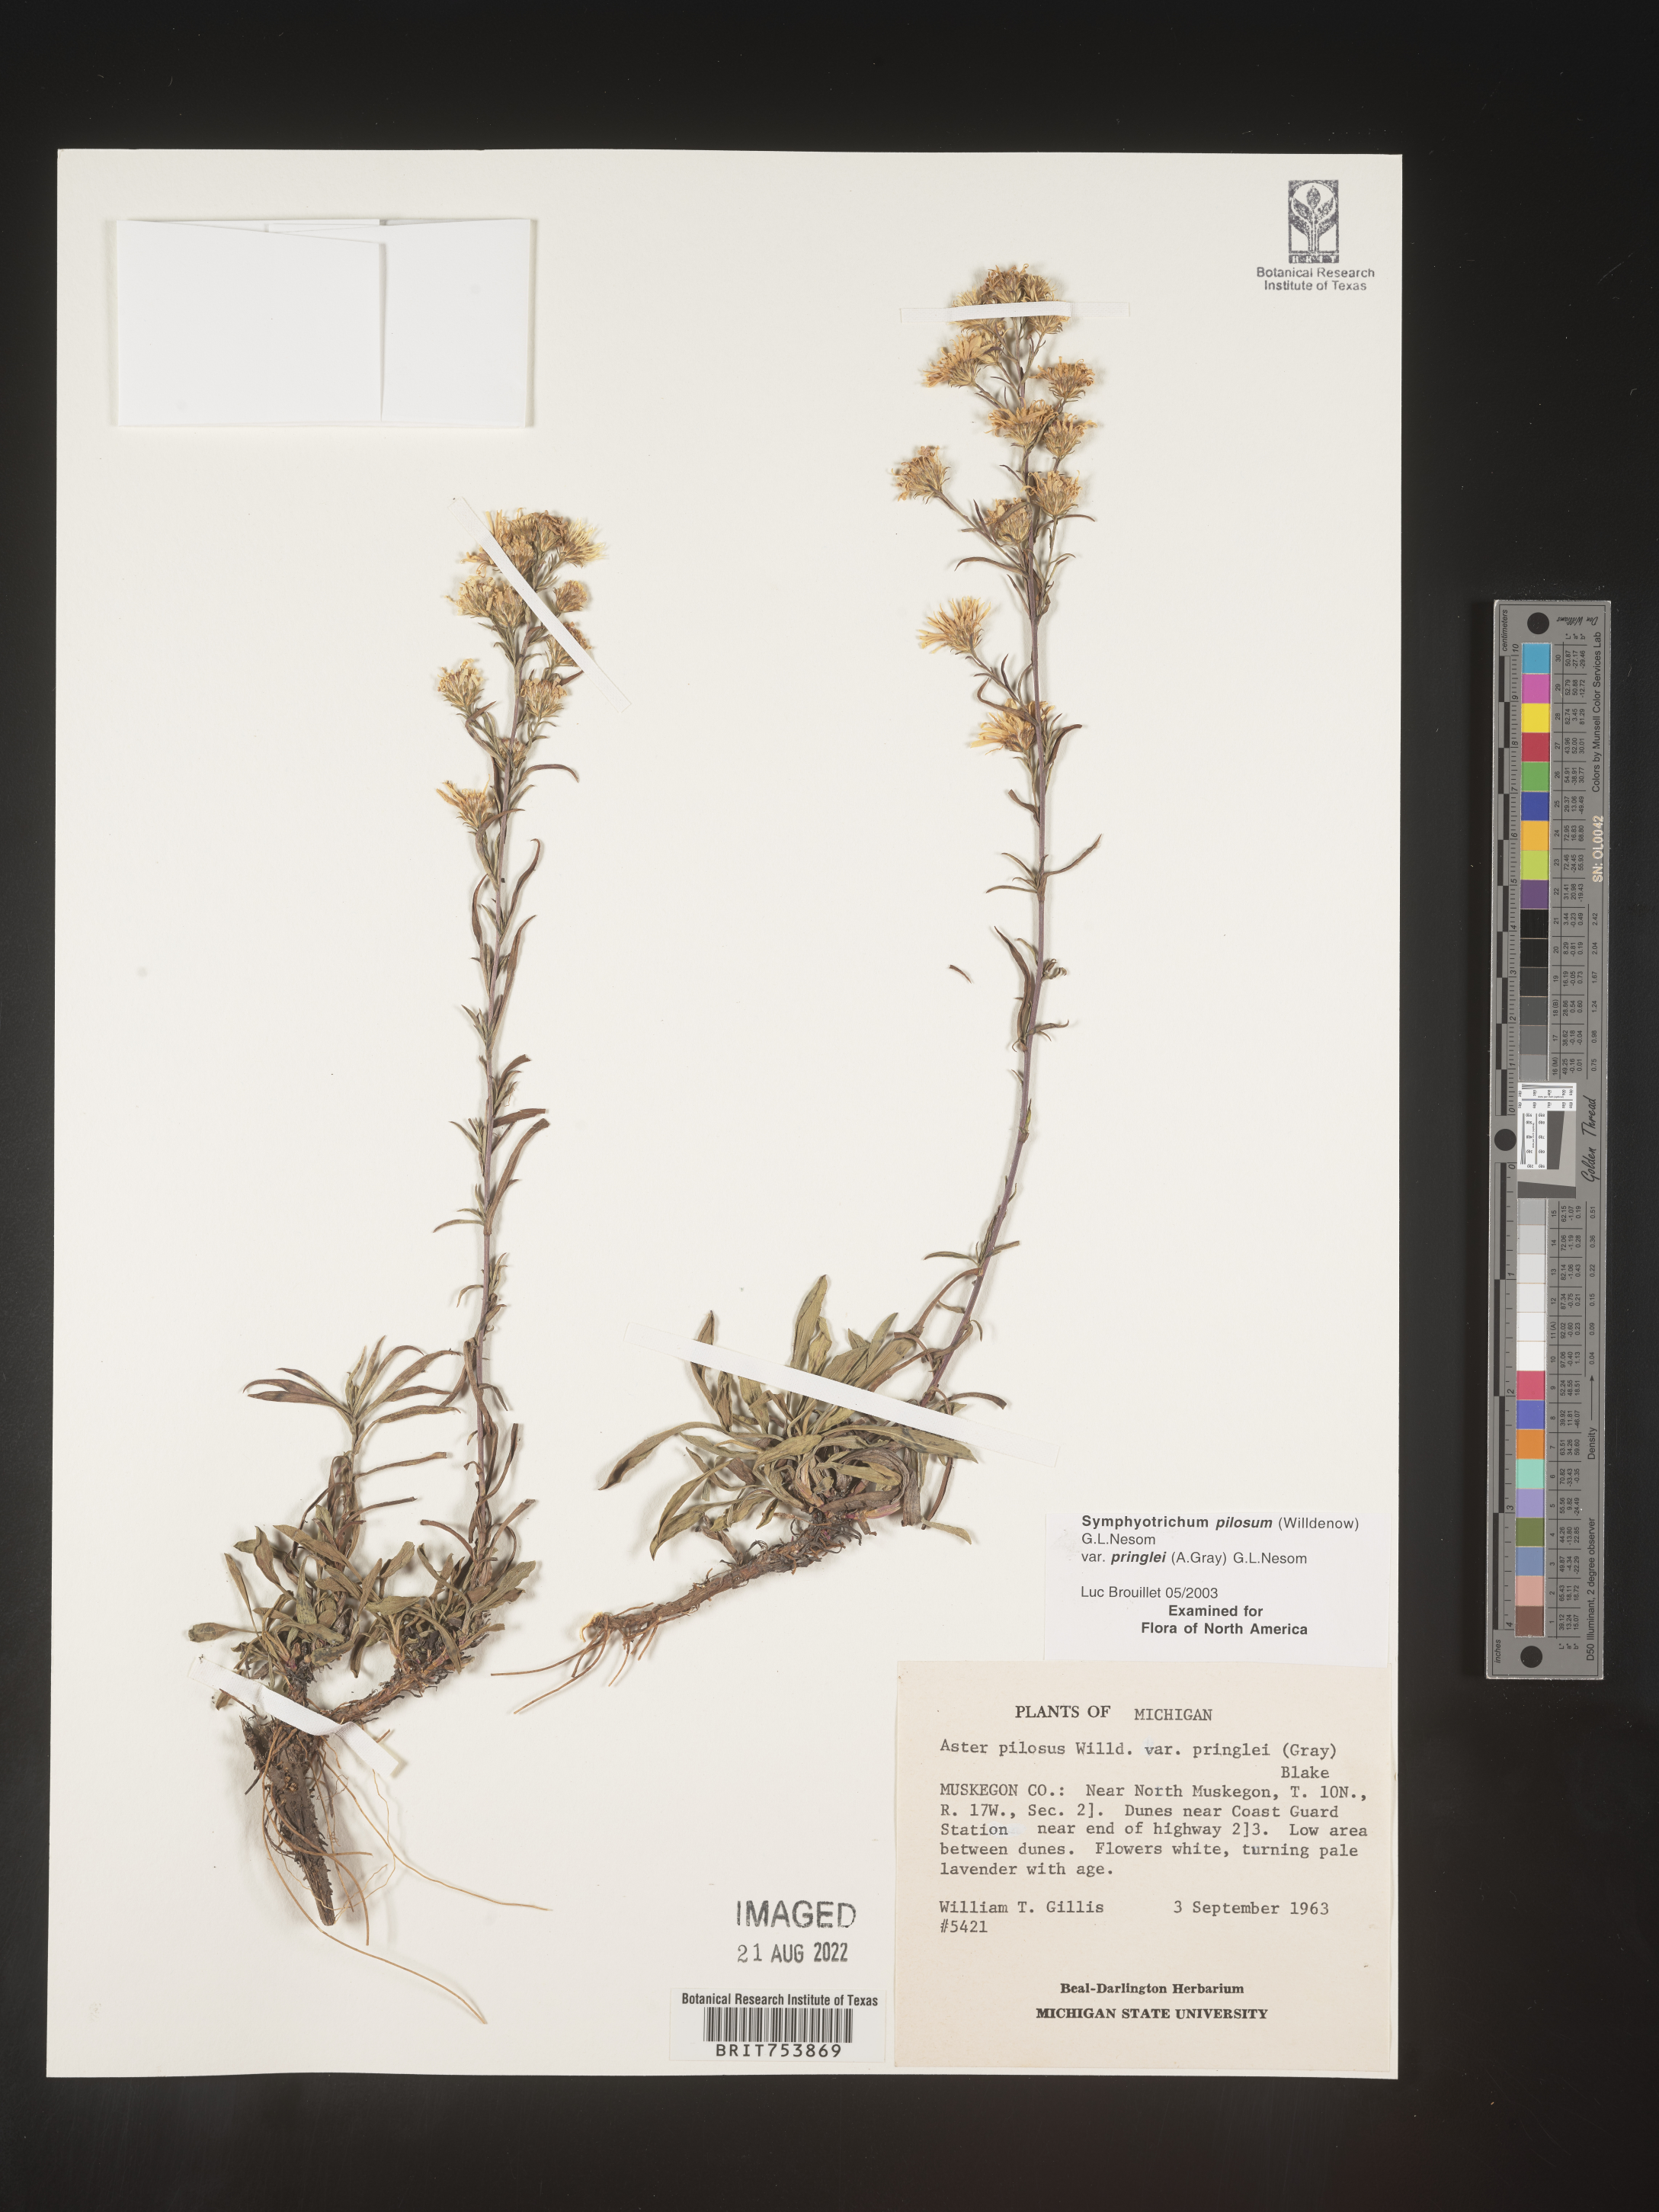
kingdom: Plantae
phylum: Tracheophyta
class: Magnoliopsida
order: Asterales
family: Asteraceae
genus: Symphyotrichum
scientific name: Symphyotrichum pilosum
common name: Awl aster
